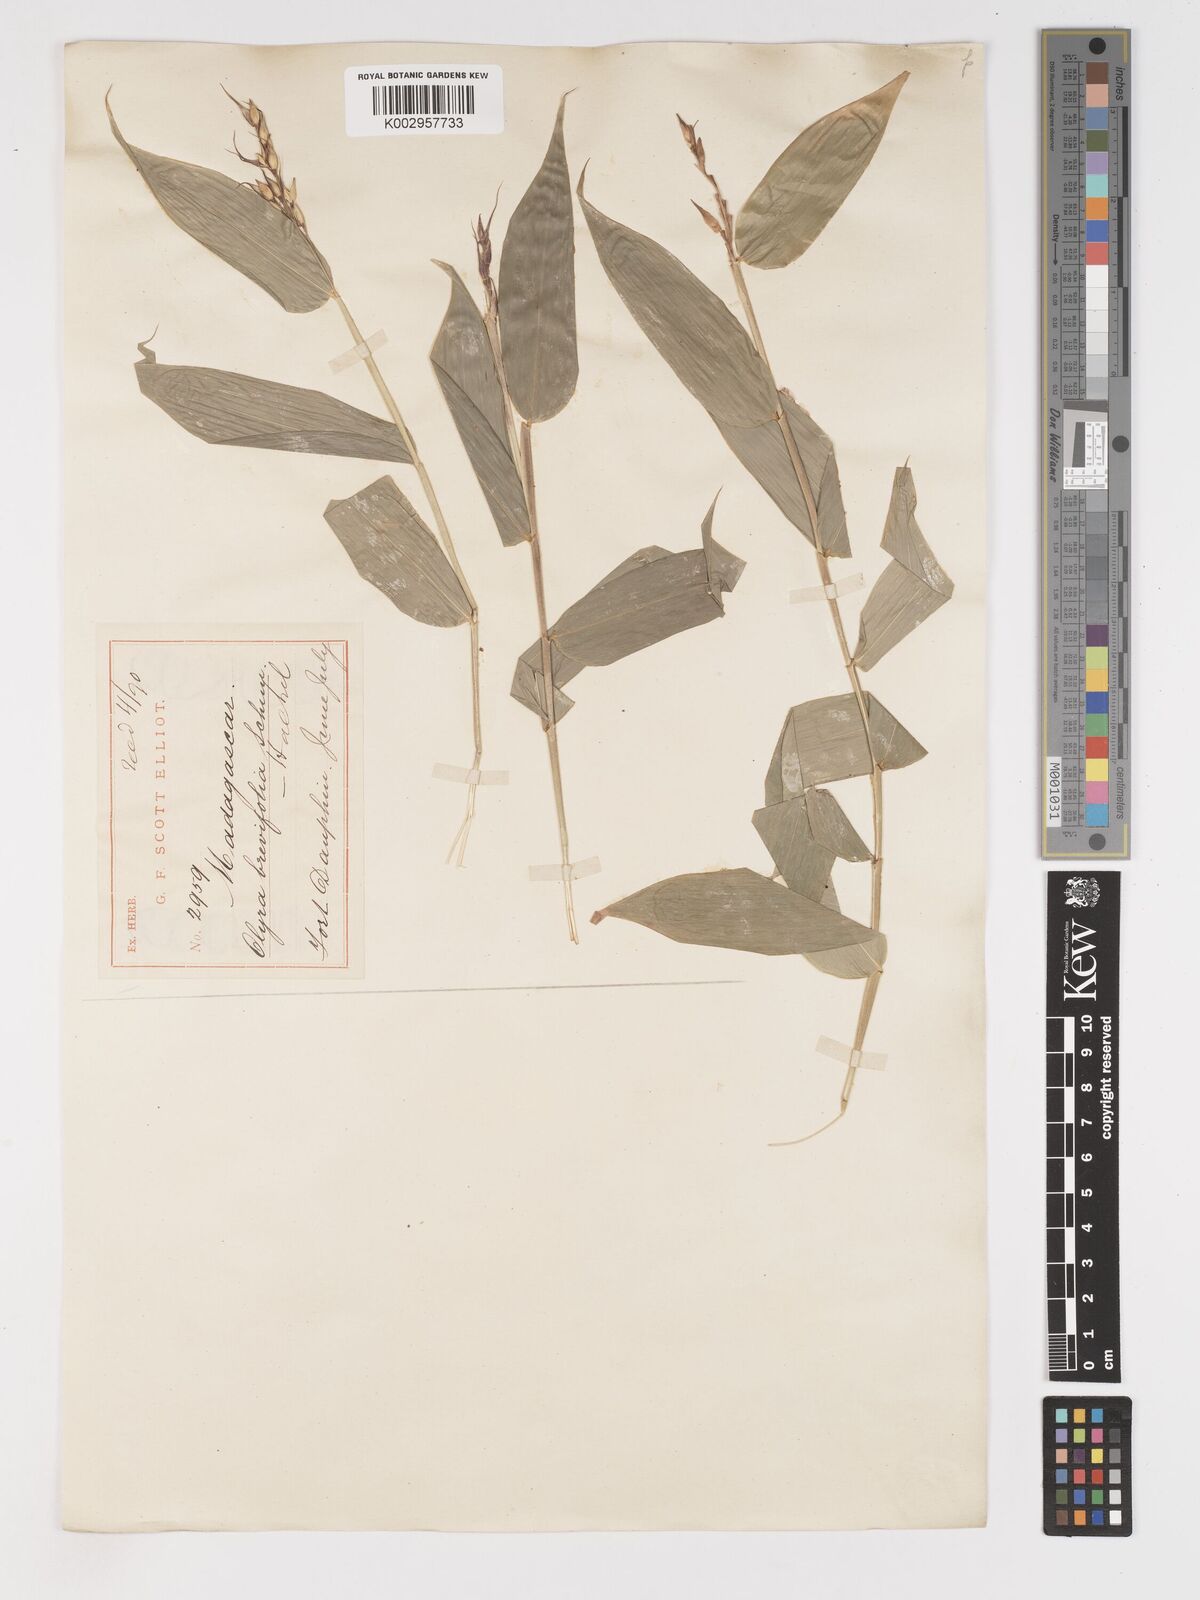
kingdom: Plantae
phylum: Tracheophyta
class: Liliopsida
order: Poales
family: Poaceae
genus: Olyra
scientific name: Olyra latifolia
